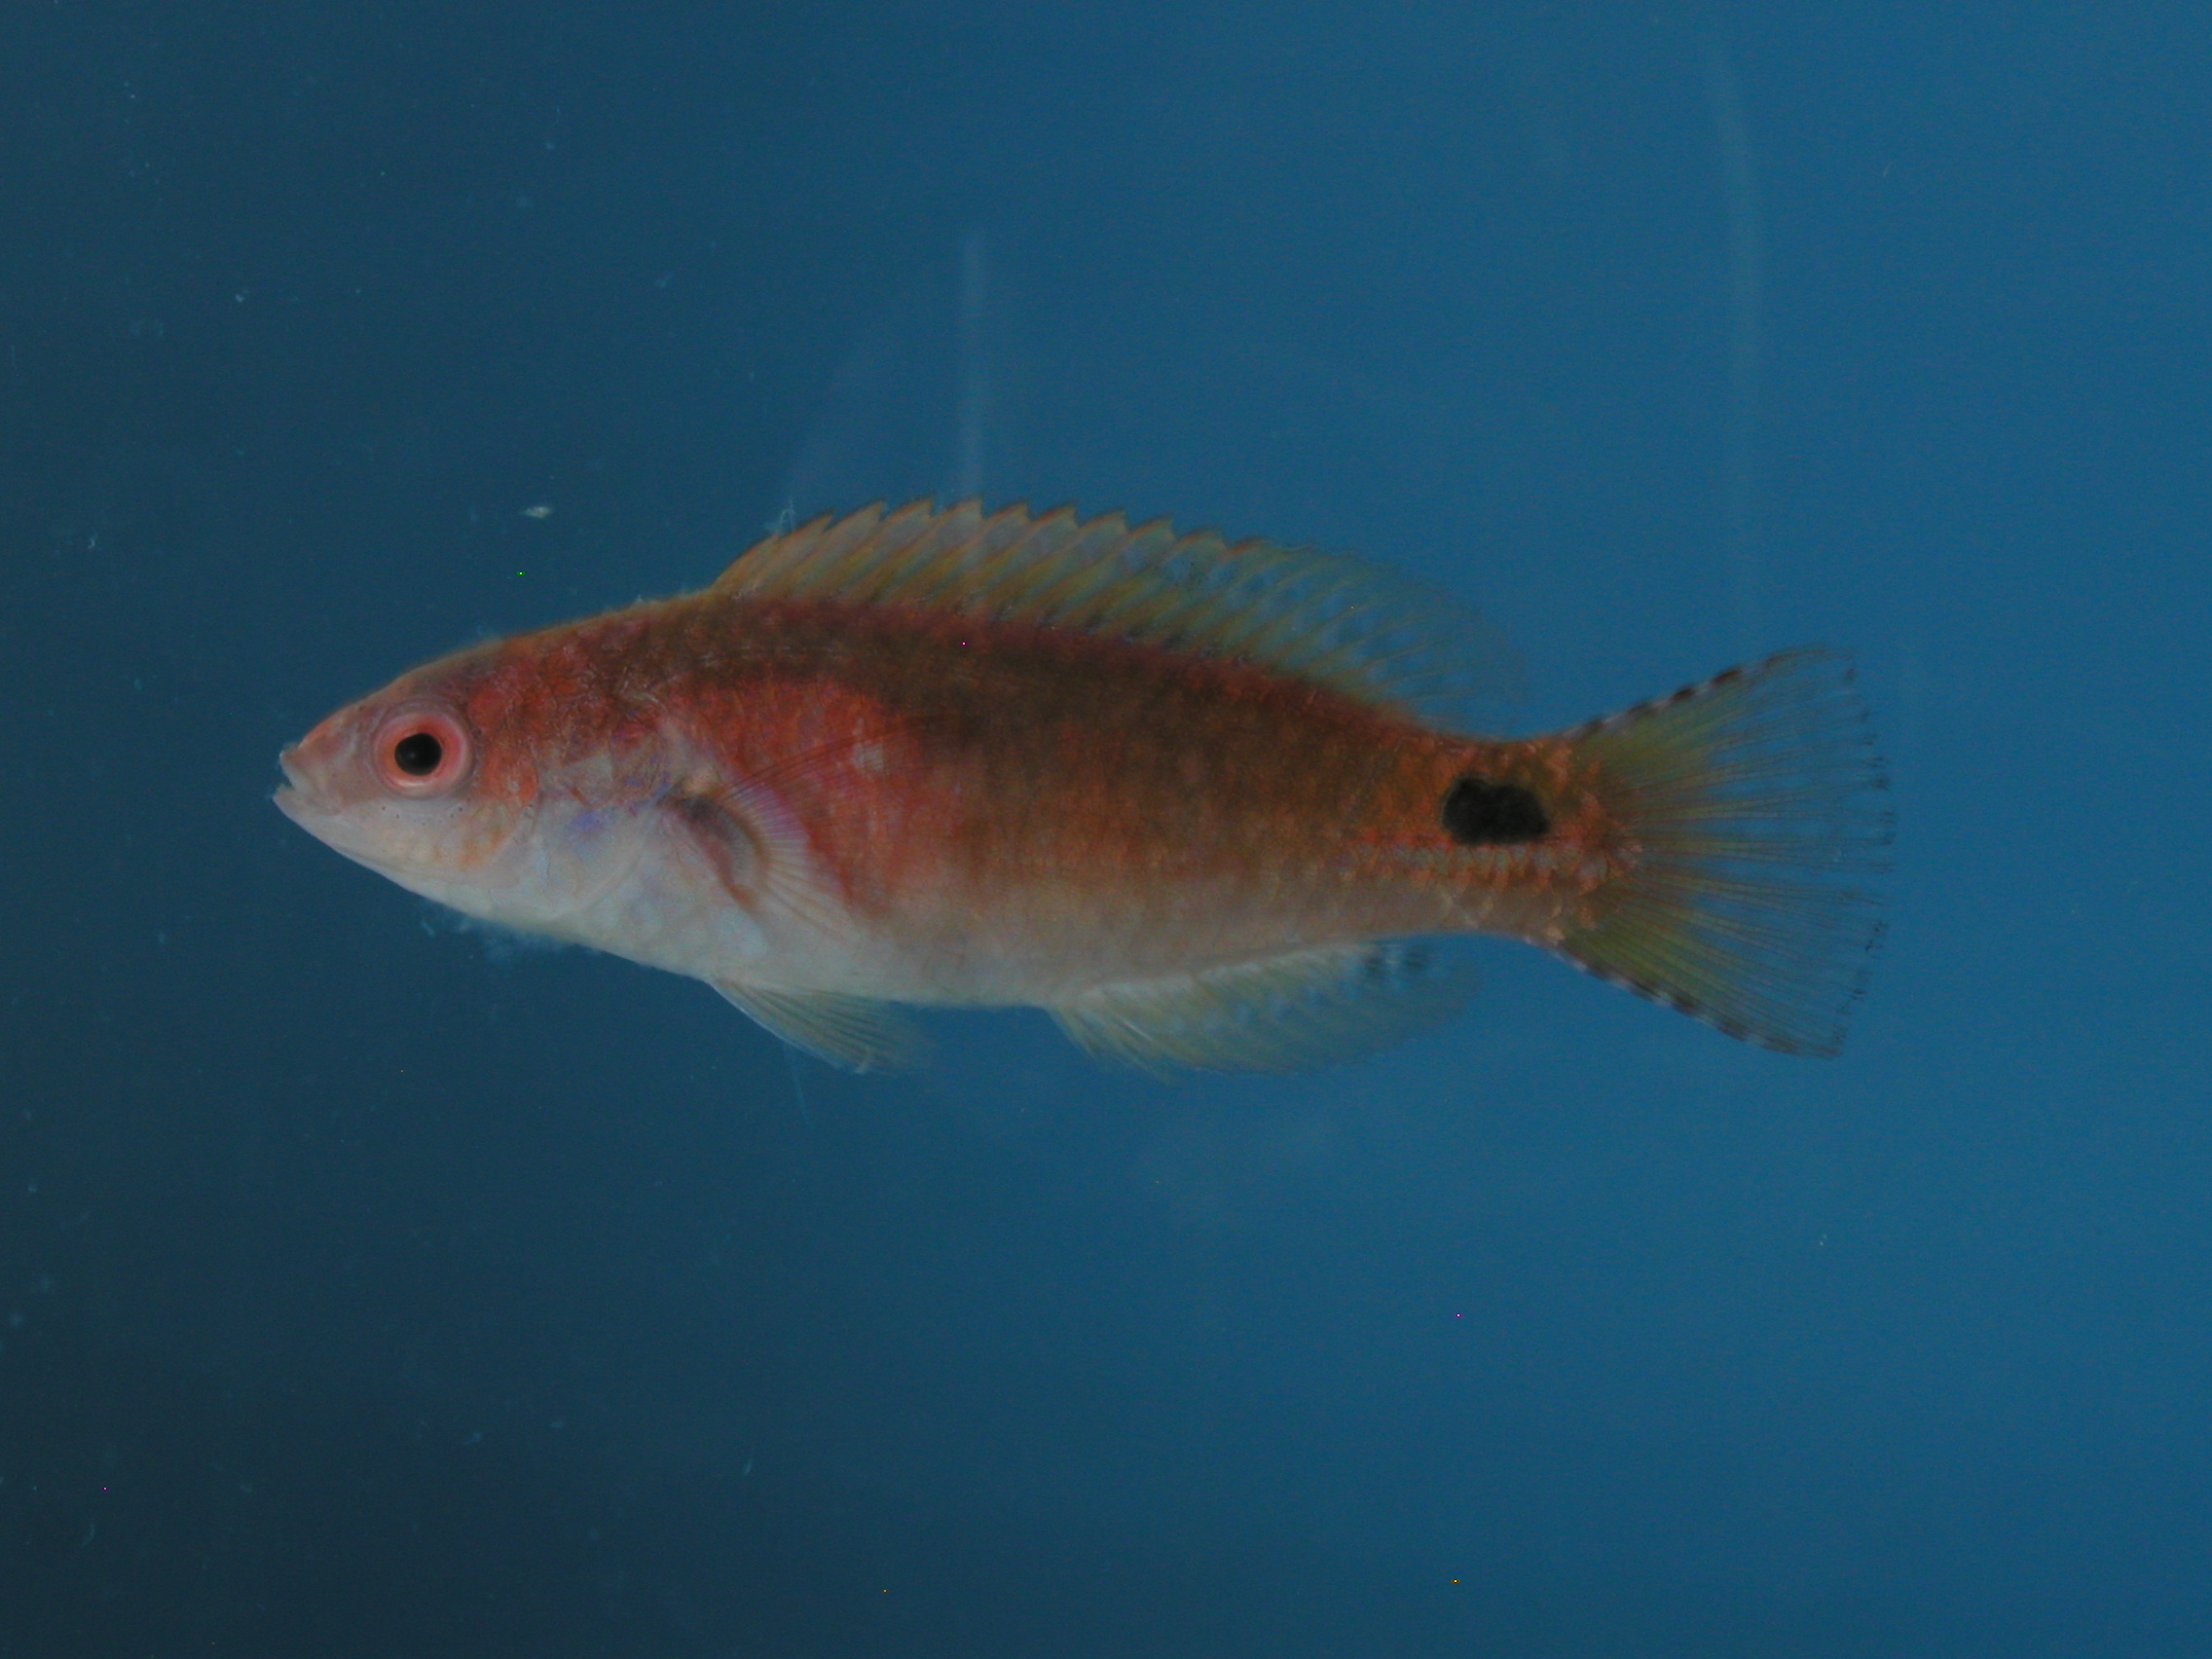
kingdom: Animalia
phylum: Chordata
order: Perciformes
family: Labridae
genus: Cirrhilabrus
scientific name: Cirrhilabrus exquisitus
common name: Exquisite wrasse
